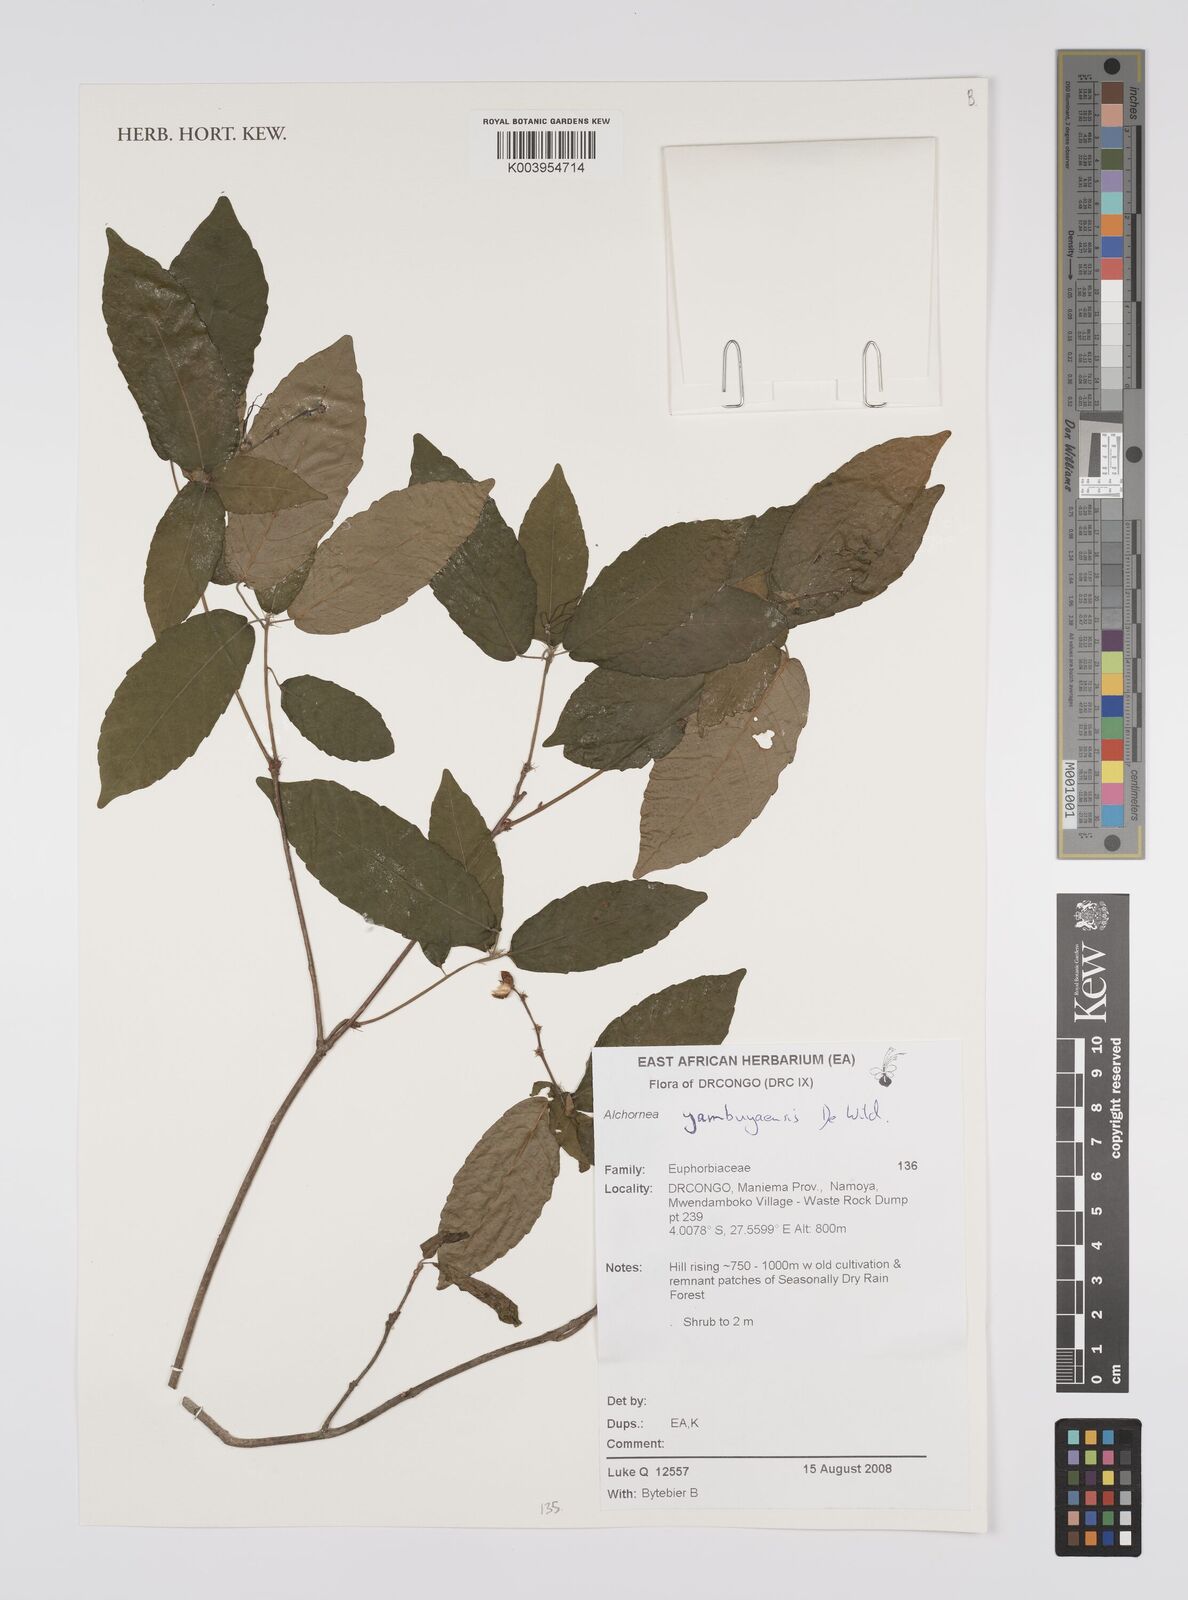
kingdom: Plantae
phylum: Tracheophyta
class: Magnoliopsida
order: Malpighiales
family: Euphorbiaceae
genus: Alchornea
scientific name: Alchornea yambuyaensis
